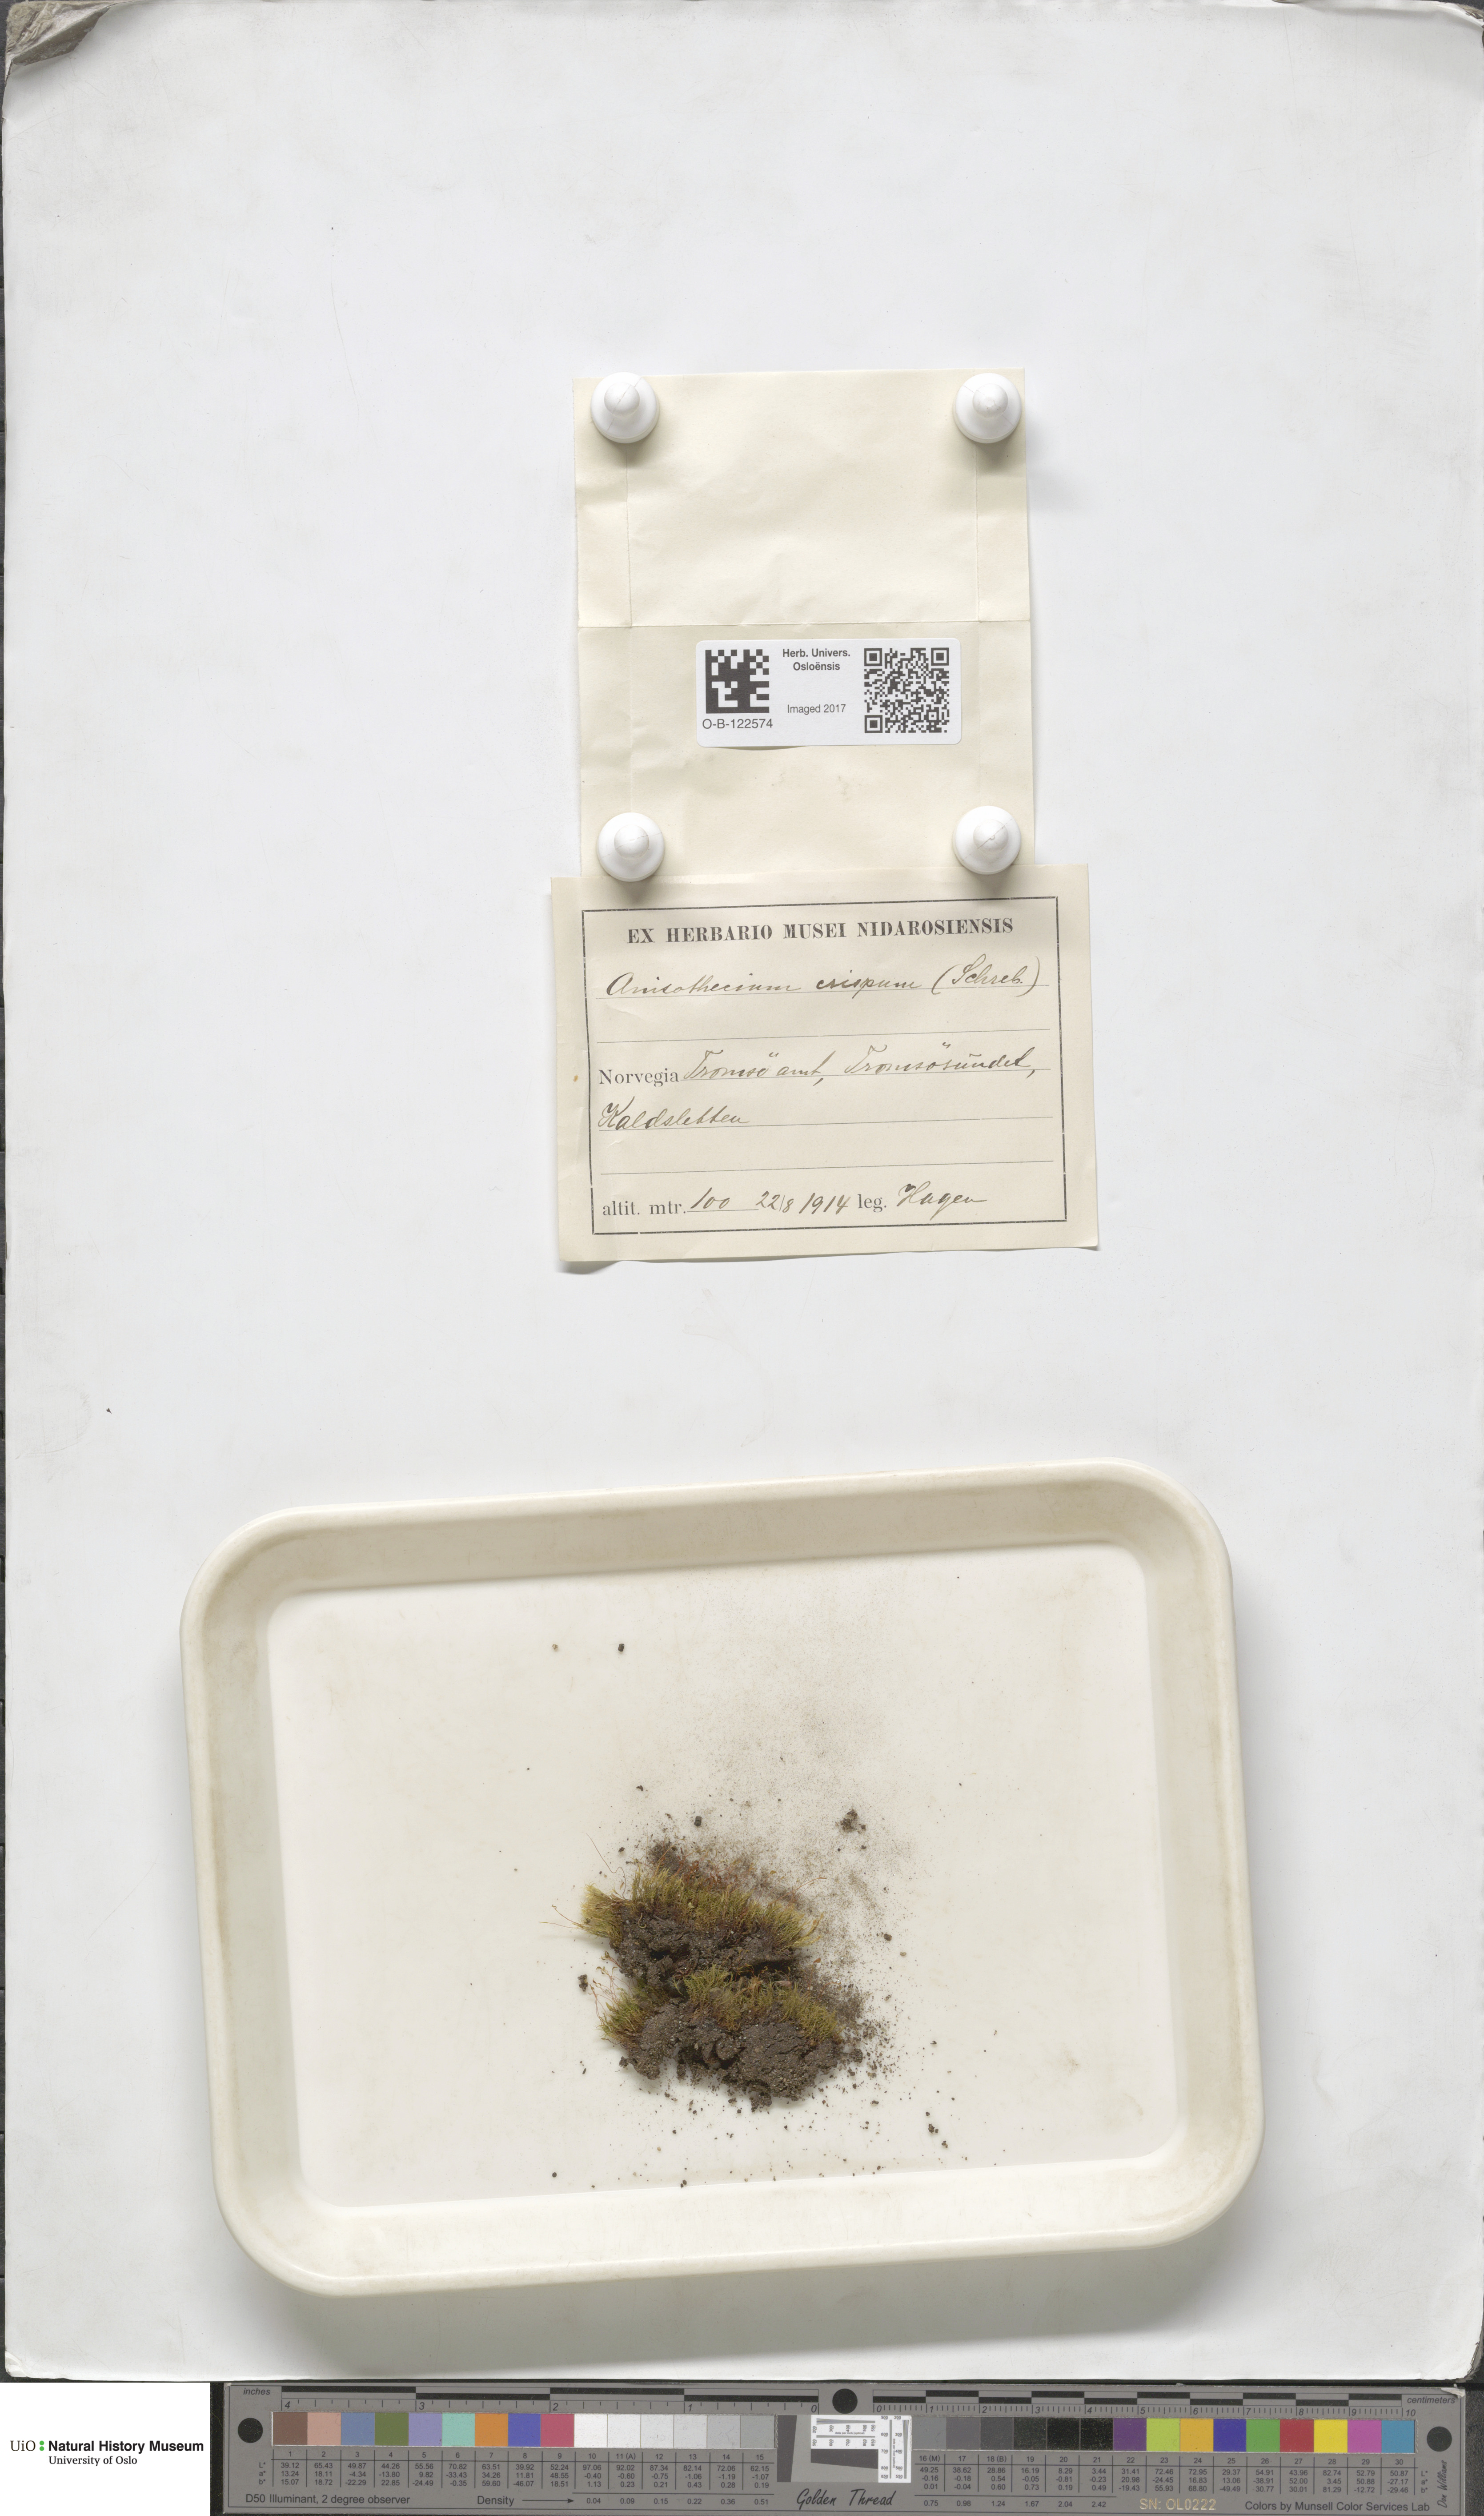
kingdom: Plantae
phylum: Bryophyta
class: Bryopsida
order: Dicranales
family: Dicranellaceae
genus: Dicranella
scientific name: Dicranella schreberiana
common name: Schreber's forklet moss
